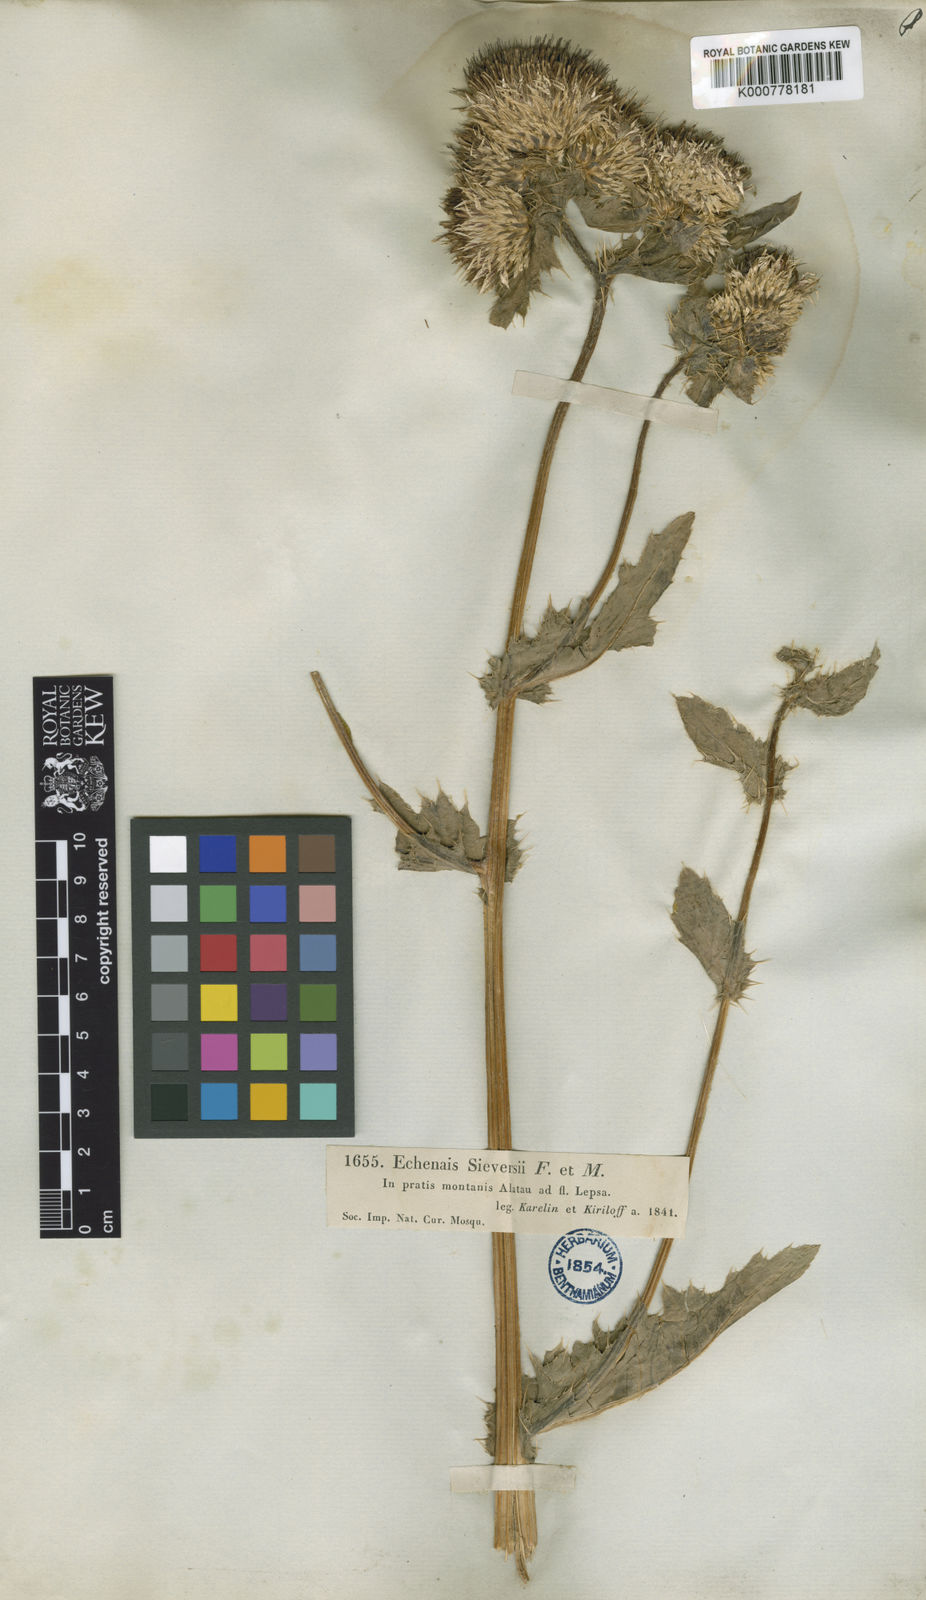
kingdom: Plantae
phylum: Tracheophyta
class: Magnoliopsida
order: Asterales
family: Asteraceae
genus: Cirsium
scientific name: Cirsium sieversii
